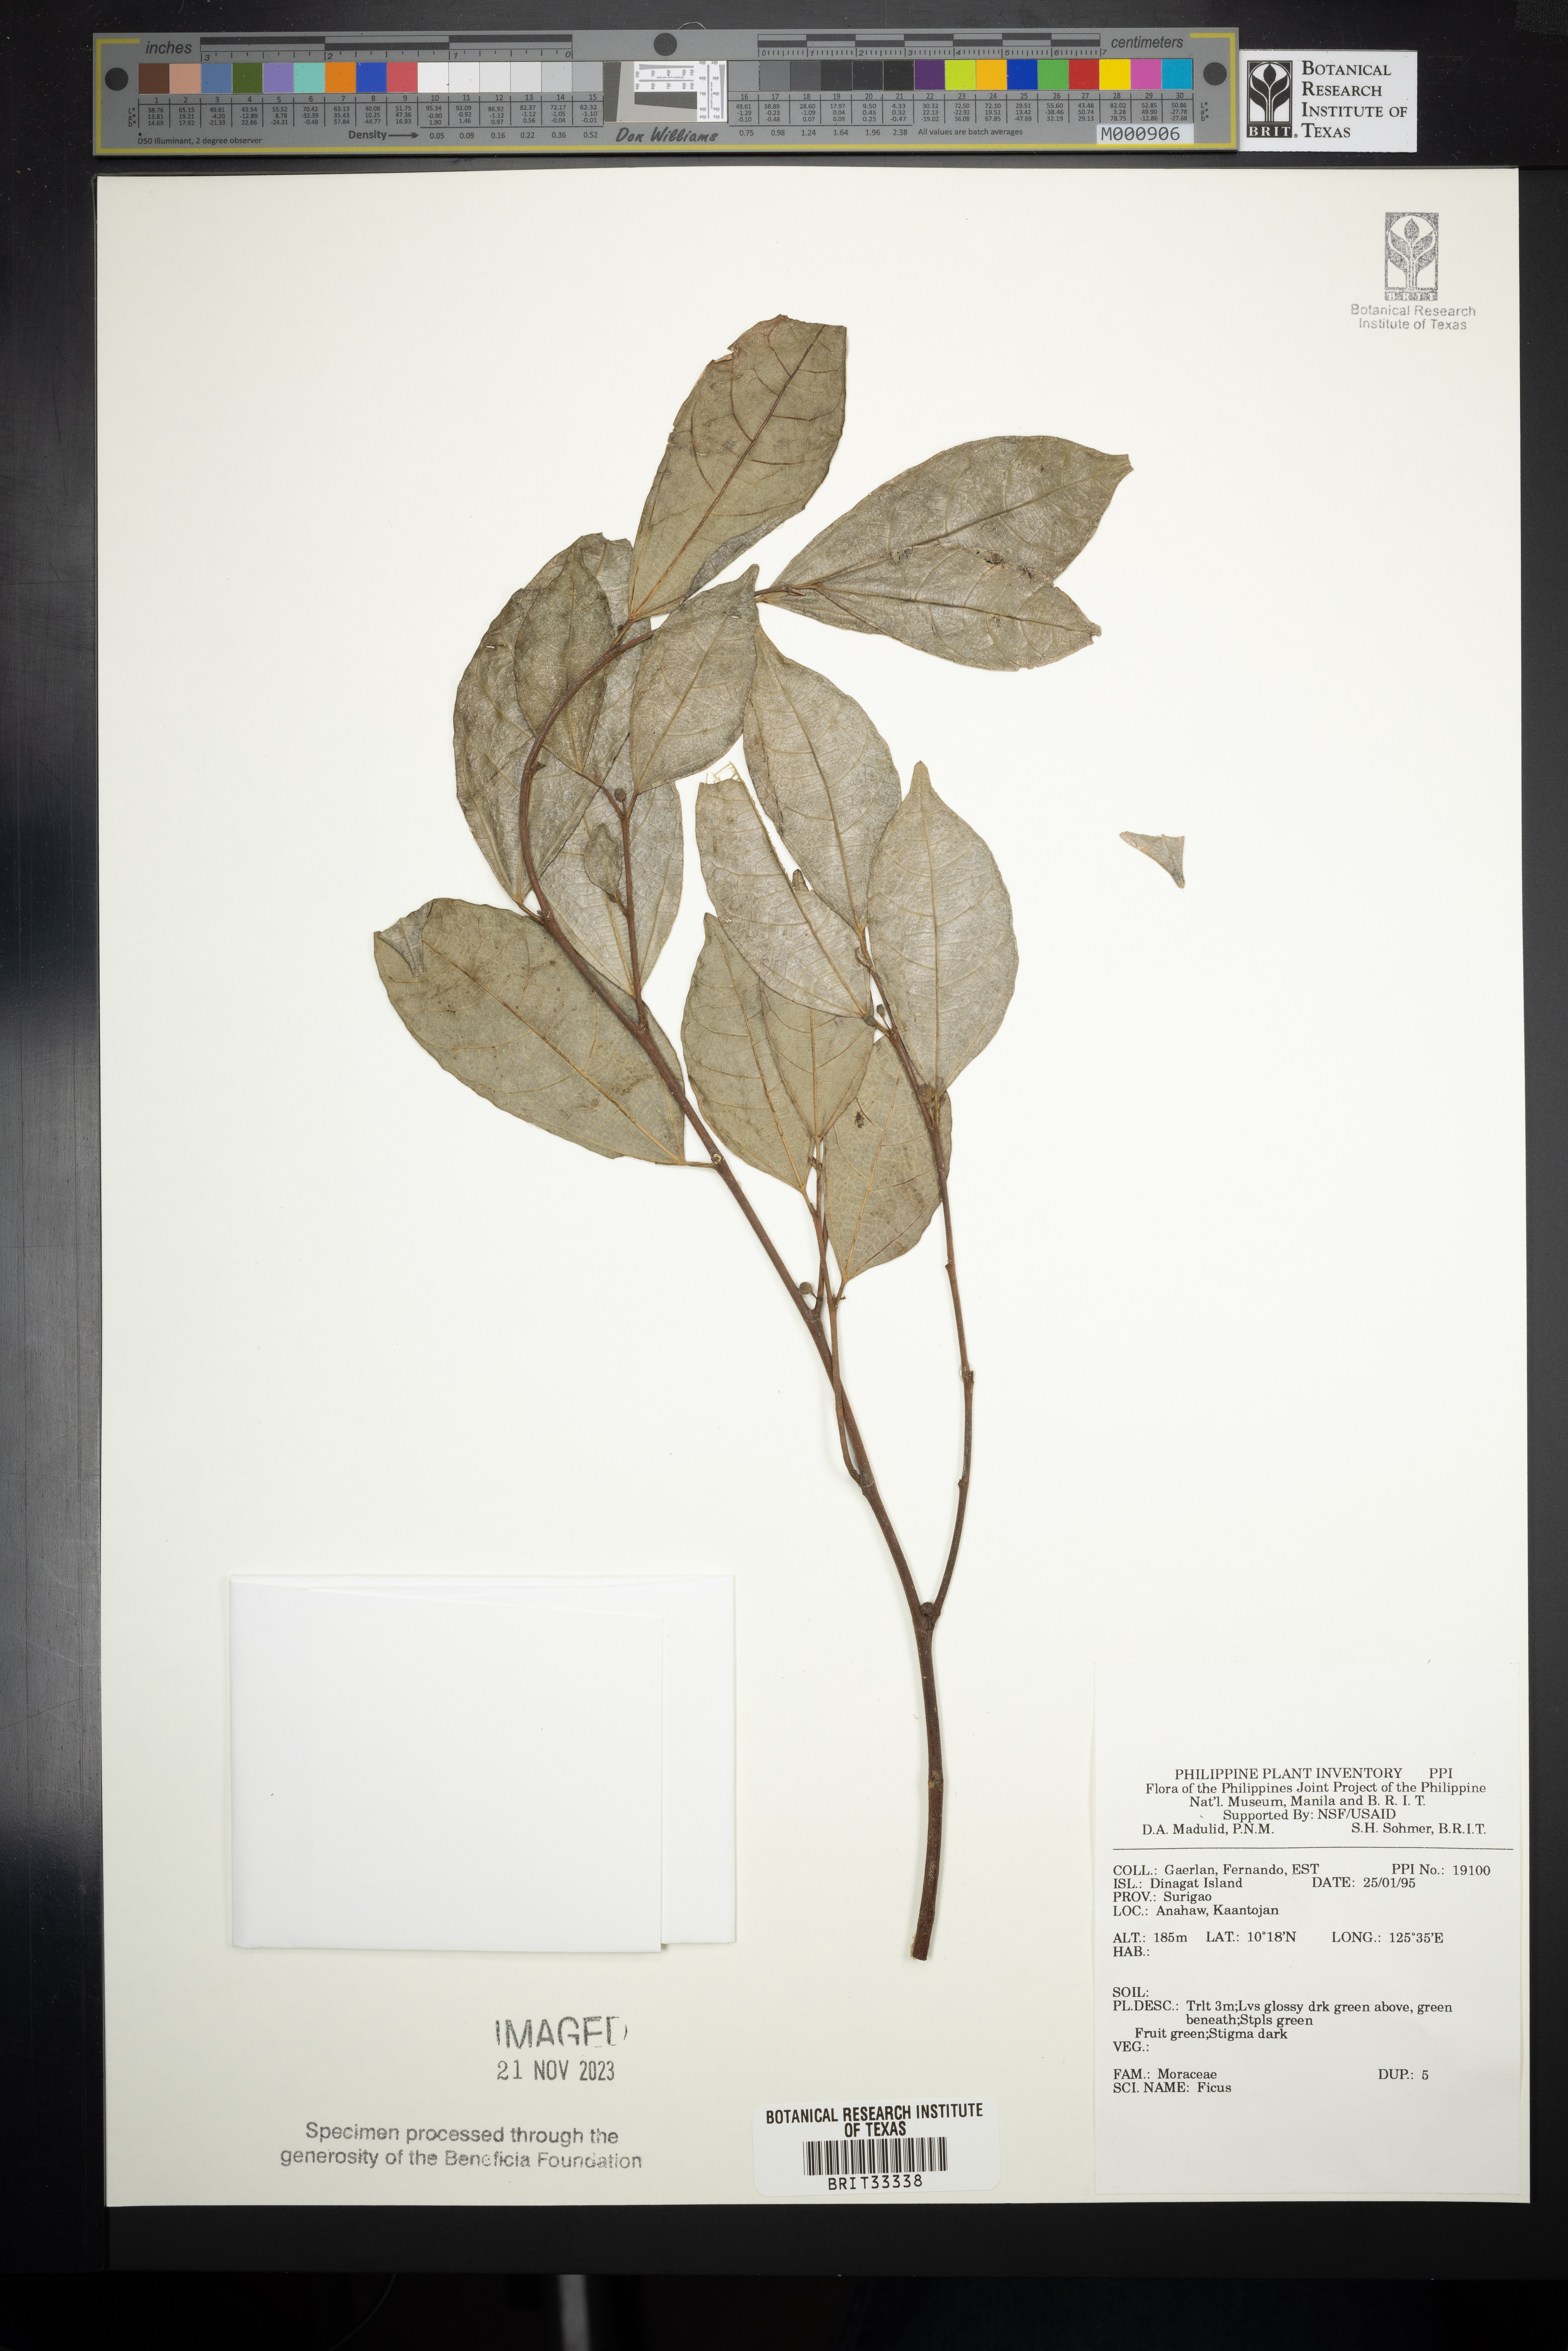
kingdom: Plantae
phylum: Tracheophyta
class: Magnoliopsida
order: Rosales
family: Moraceae
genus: Ficus
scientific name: Ficus
